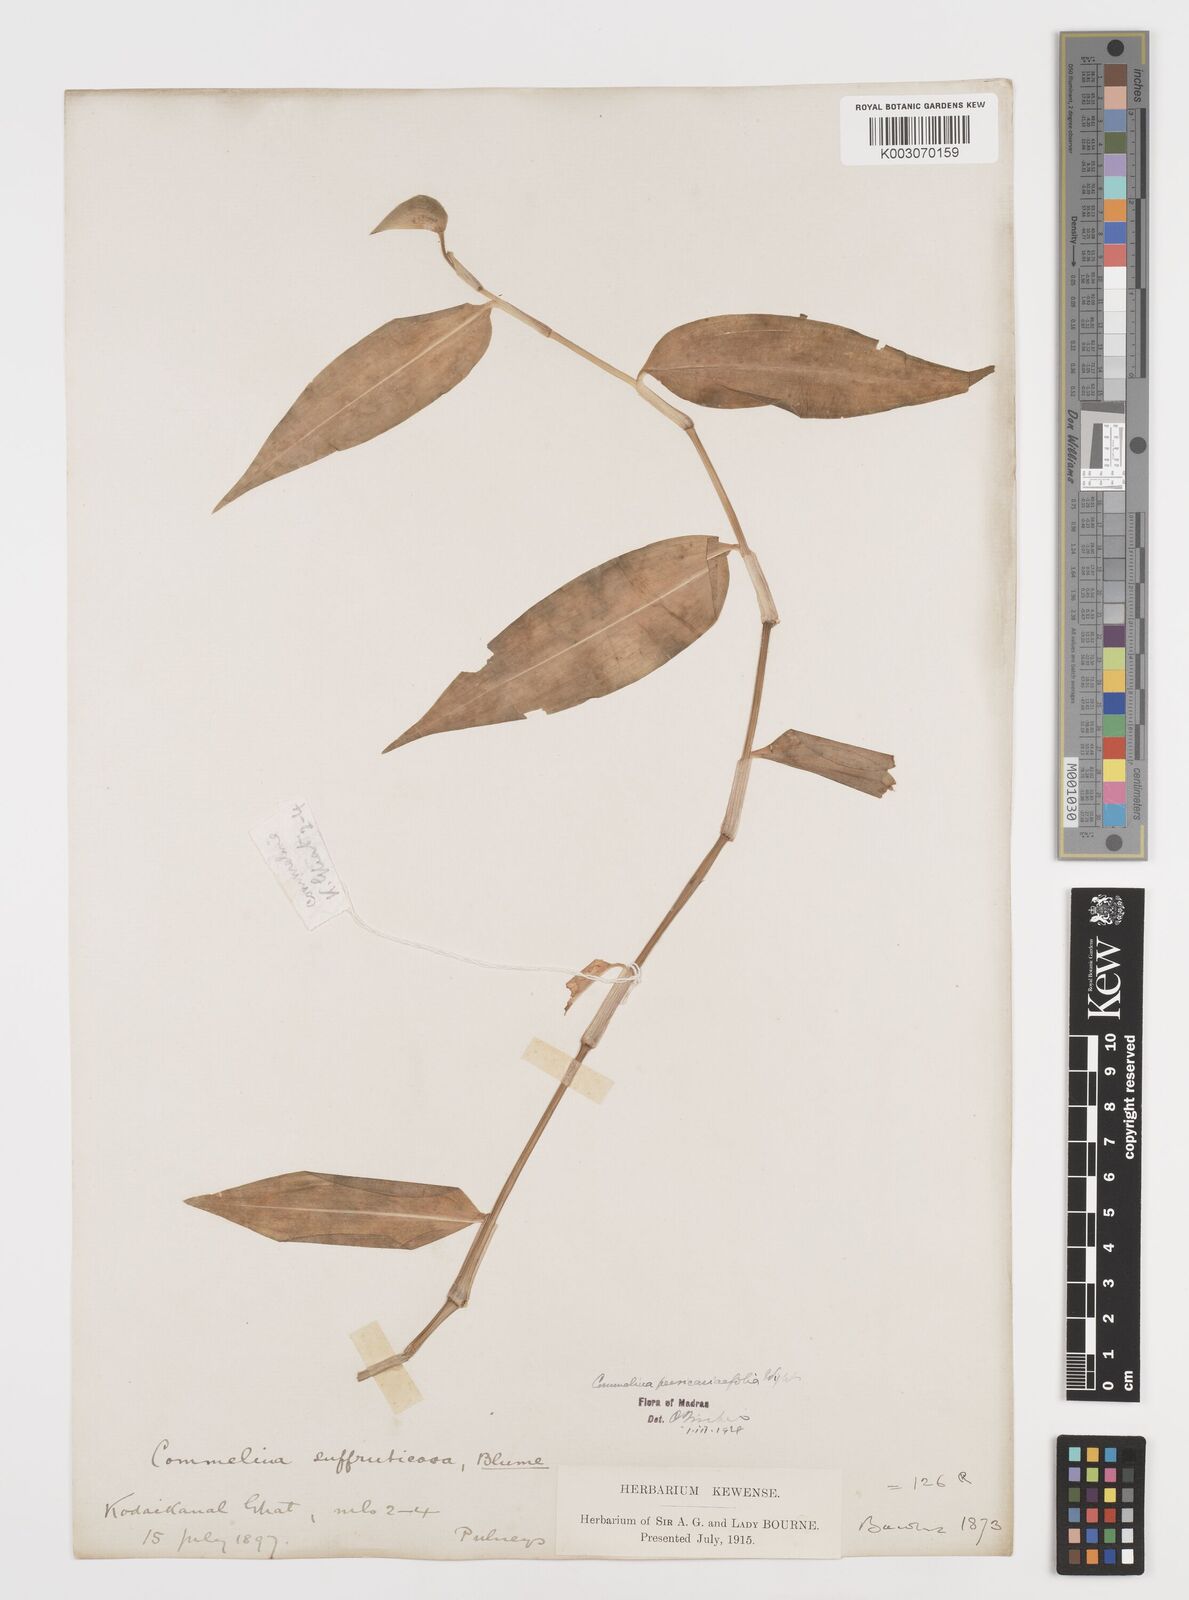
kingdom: Plantae
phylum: Tracheophyta
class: Liliopsida
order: Commelinales
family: Commelinaceae
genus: Commelina
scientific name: Commelina petersii
